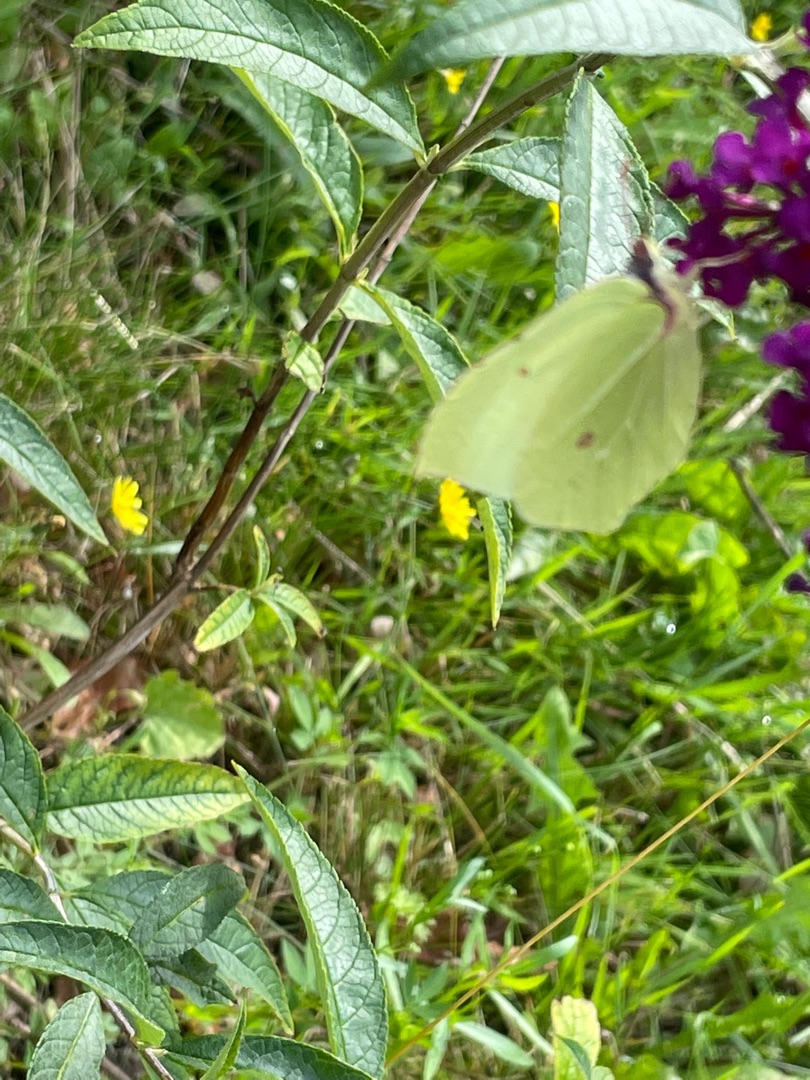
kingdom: Animalia
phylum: Arthropoda
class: Insecta
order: Lepidoptera
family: Pieridae
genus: Gonepteryx
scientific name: Gonepteryx rhamni
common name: Citronsommerfugl
